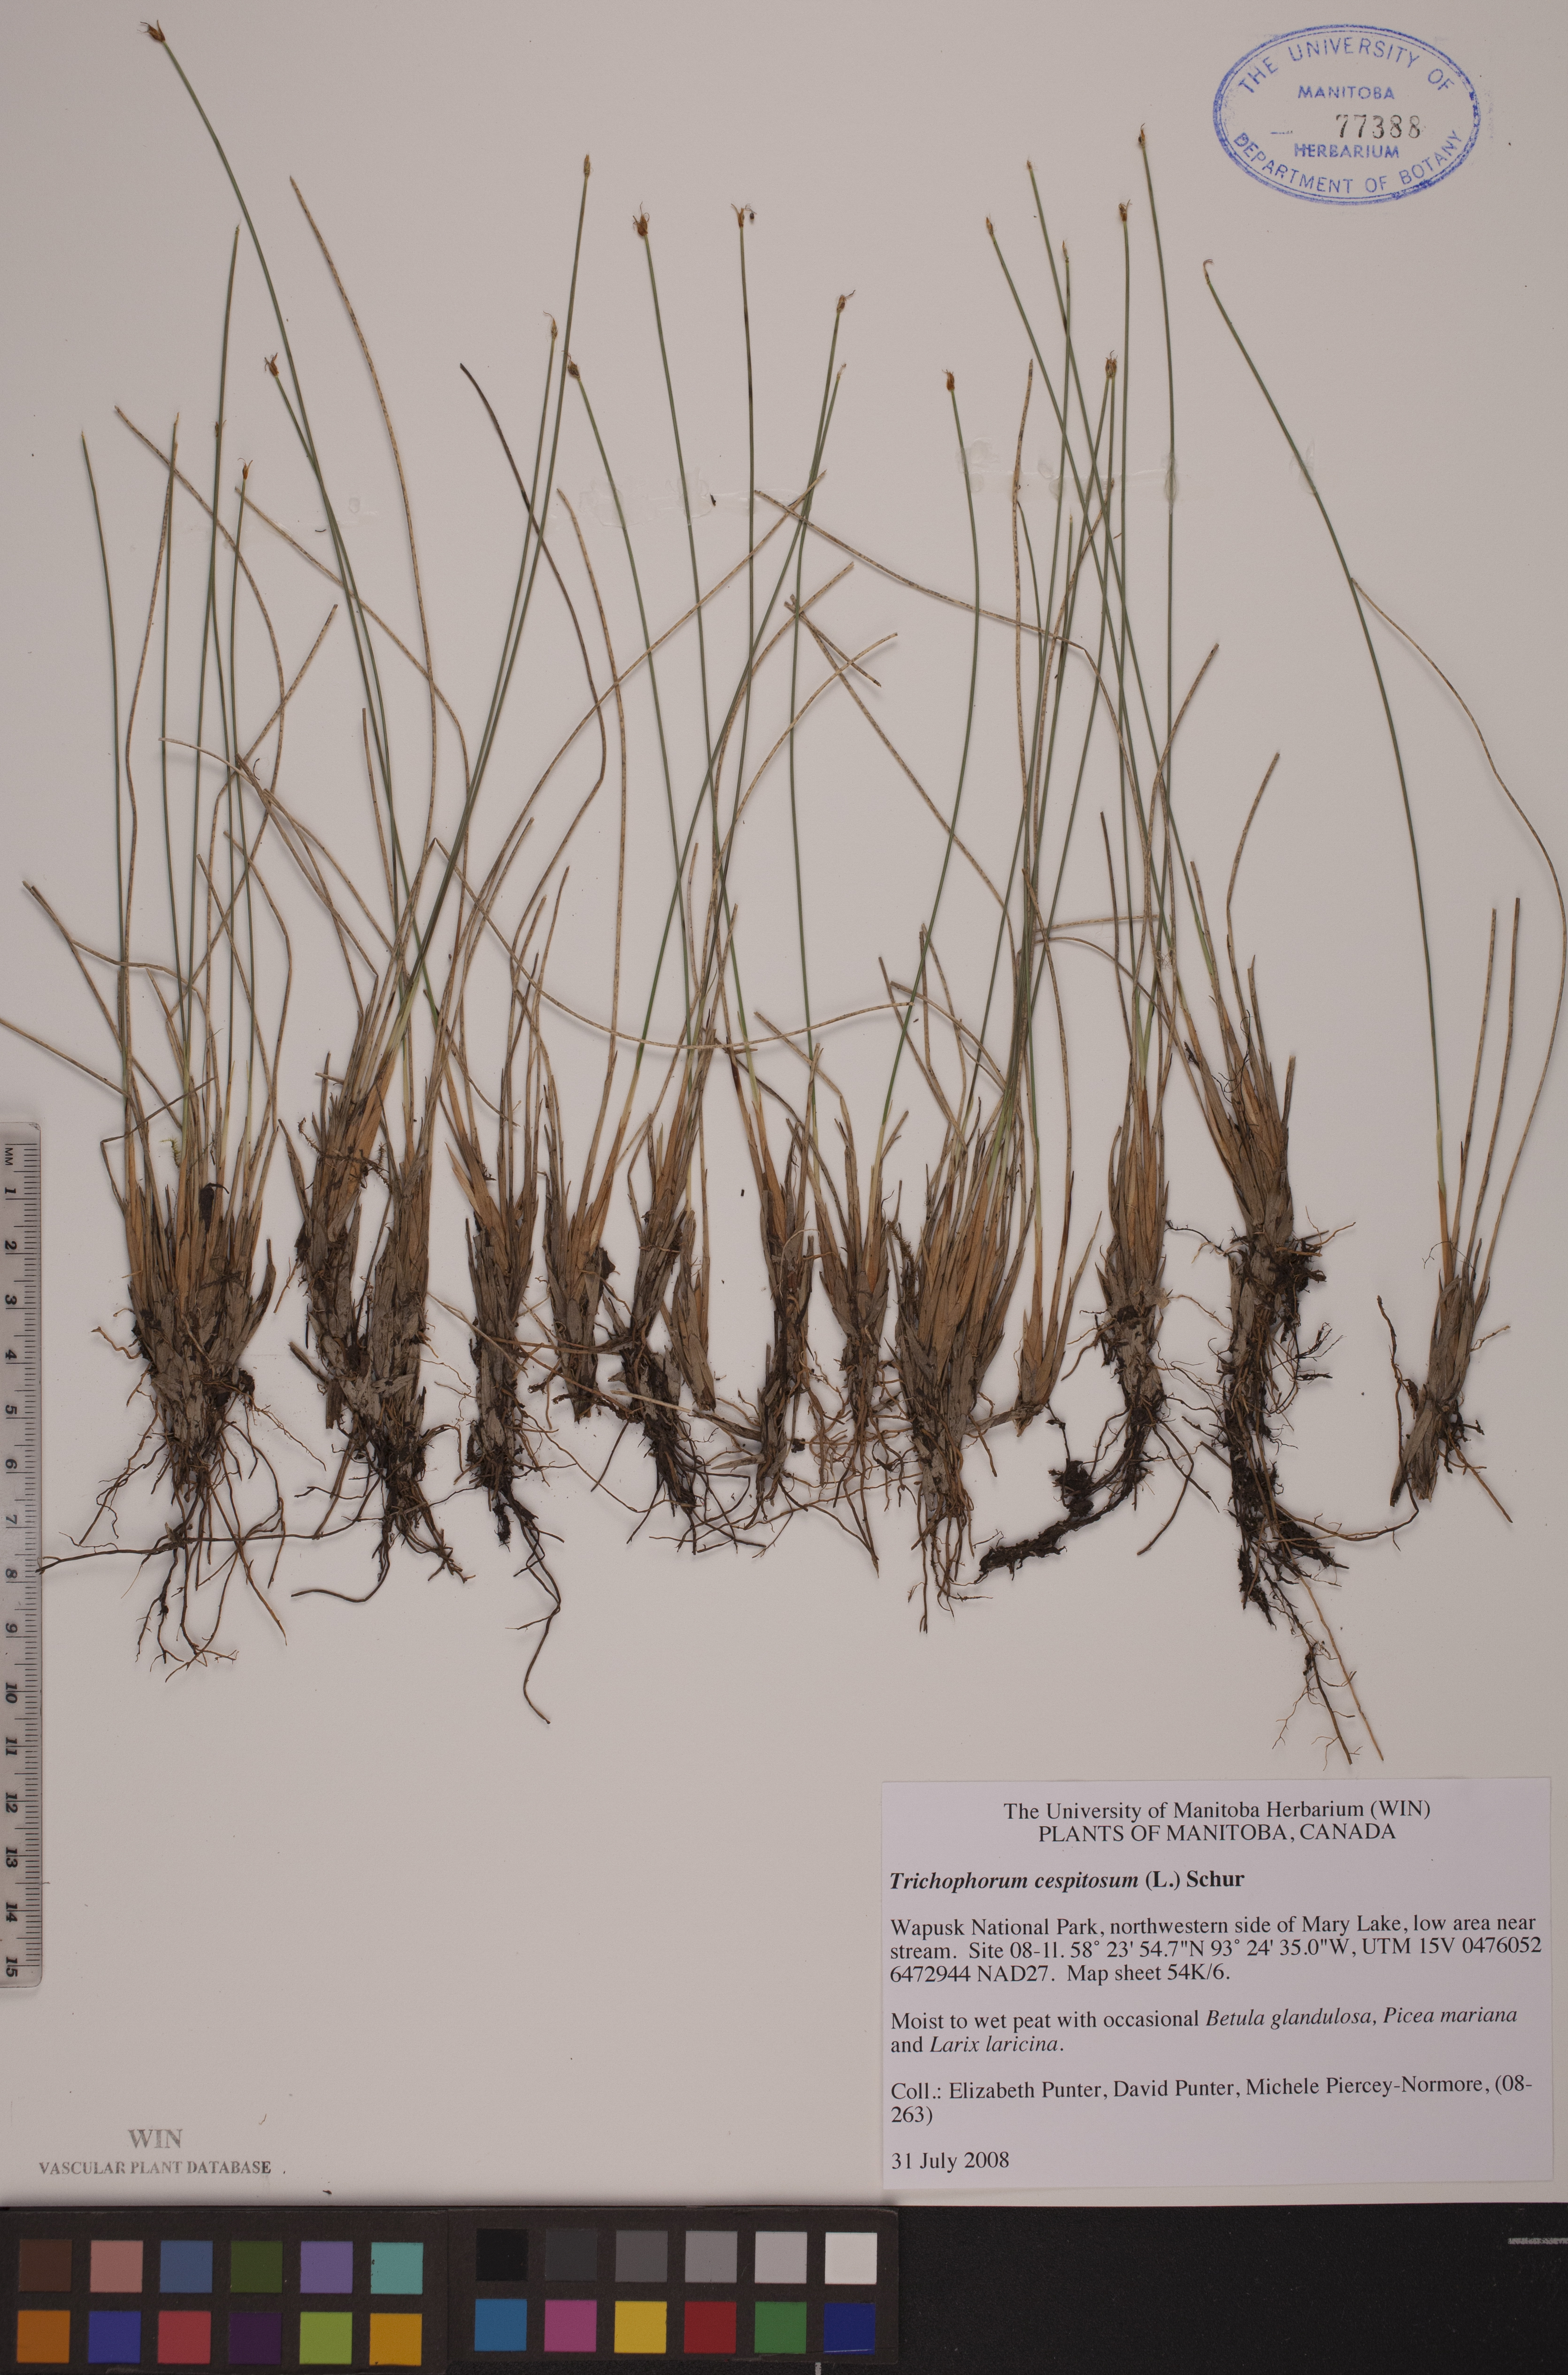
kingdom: Plantae
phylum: Tracheophyta
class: Liliopsida
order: Poales
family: Cyperaceae
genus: Trichophorum
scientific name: Trichophorum cespitosum
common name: Cespitose bulrush
